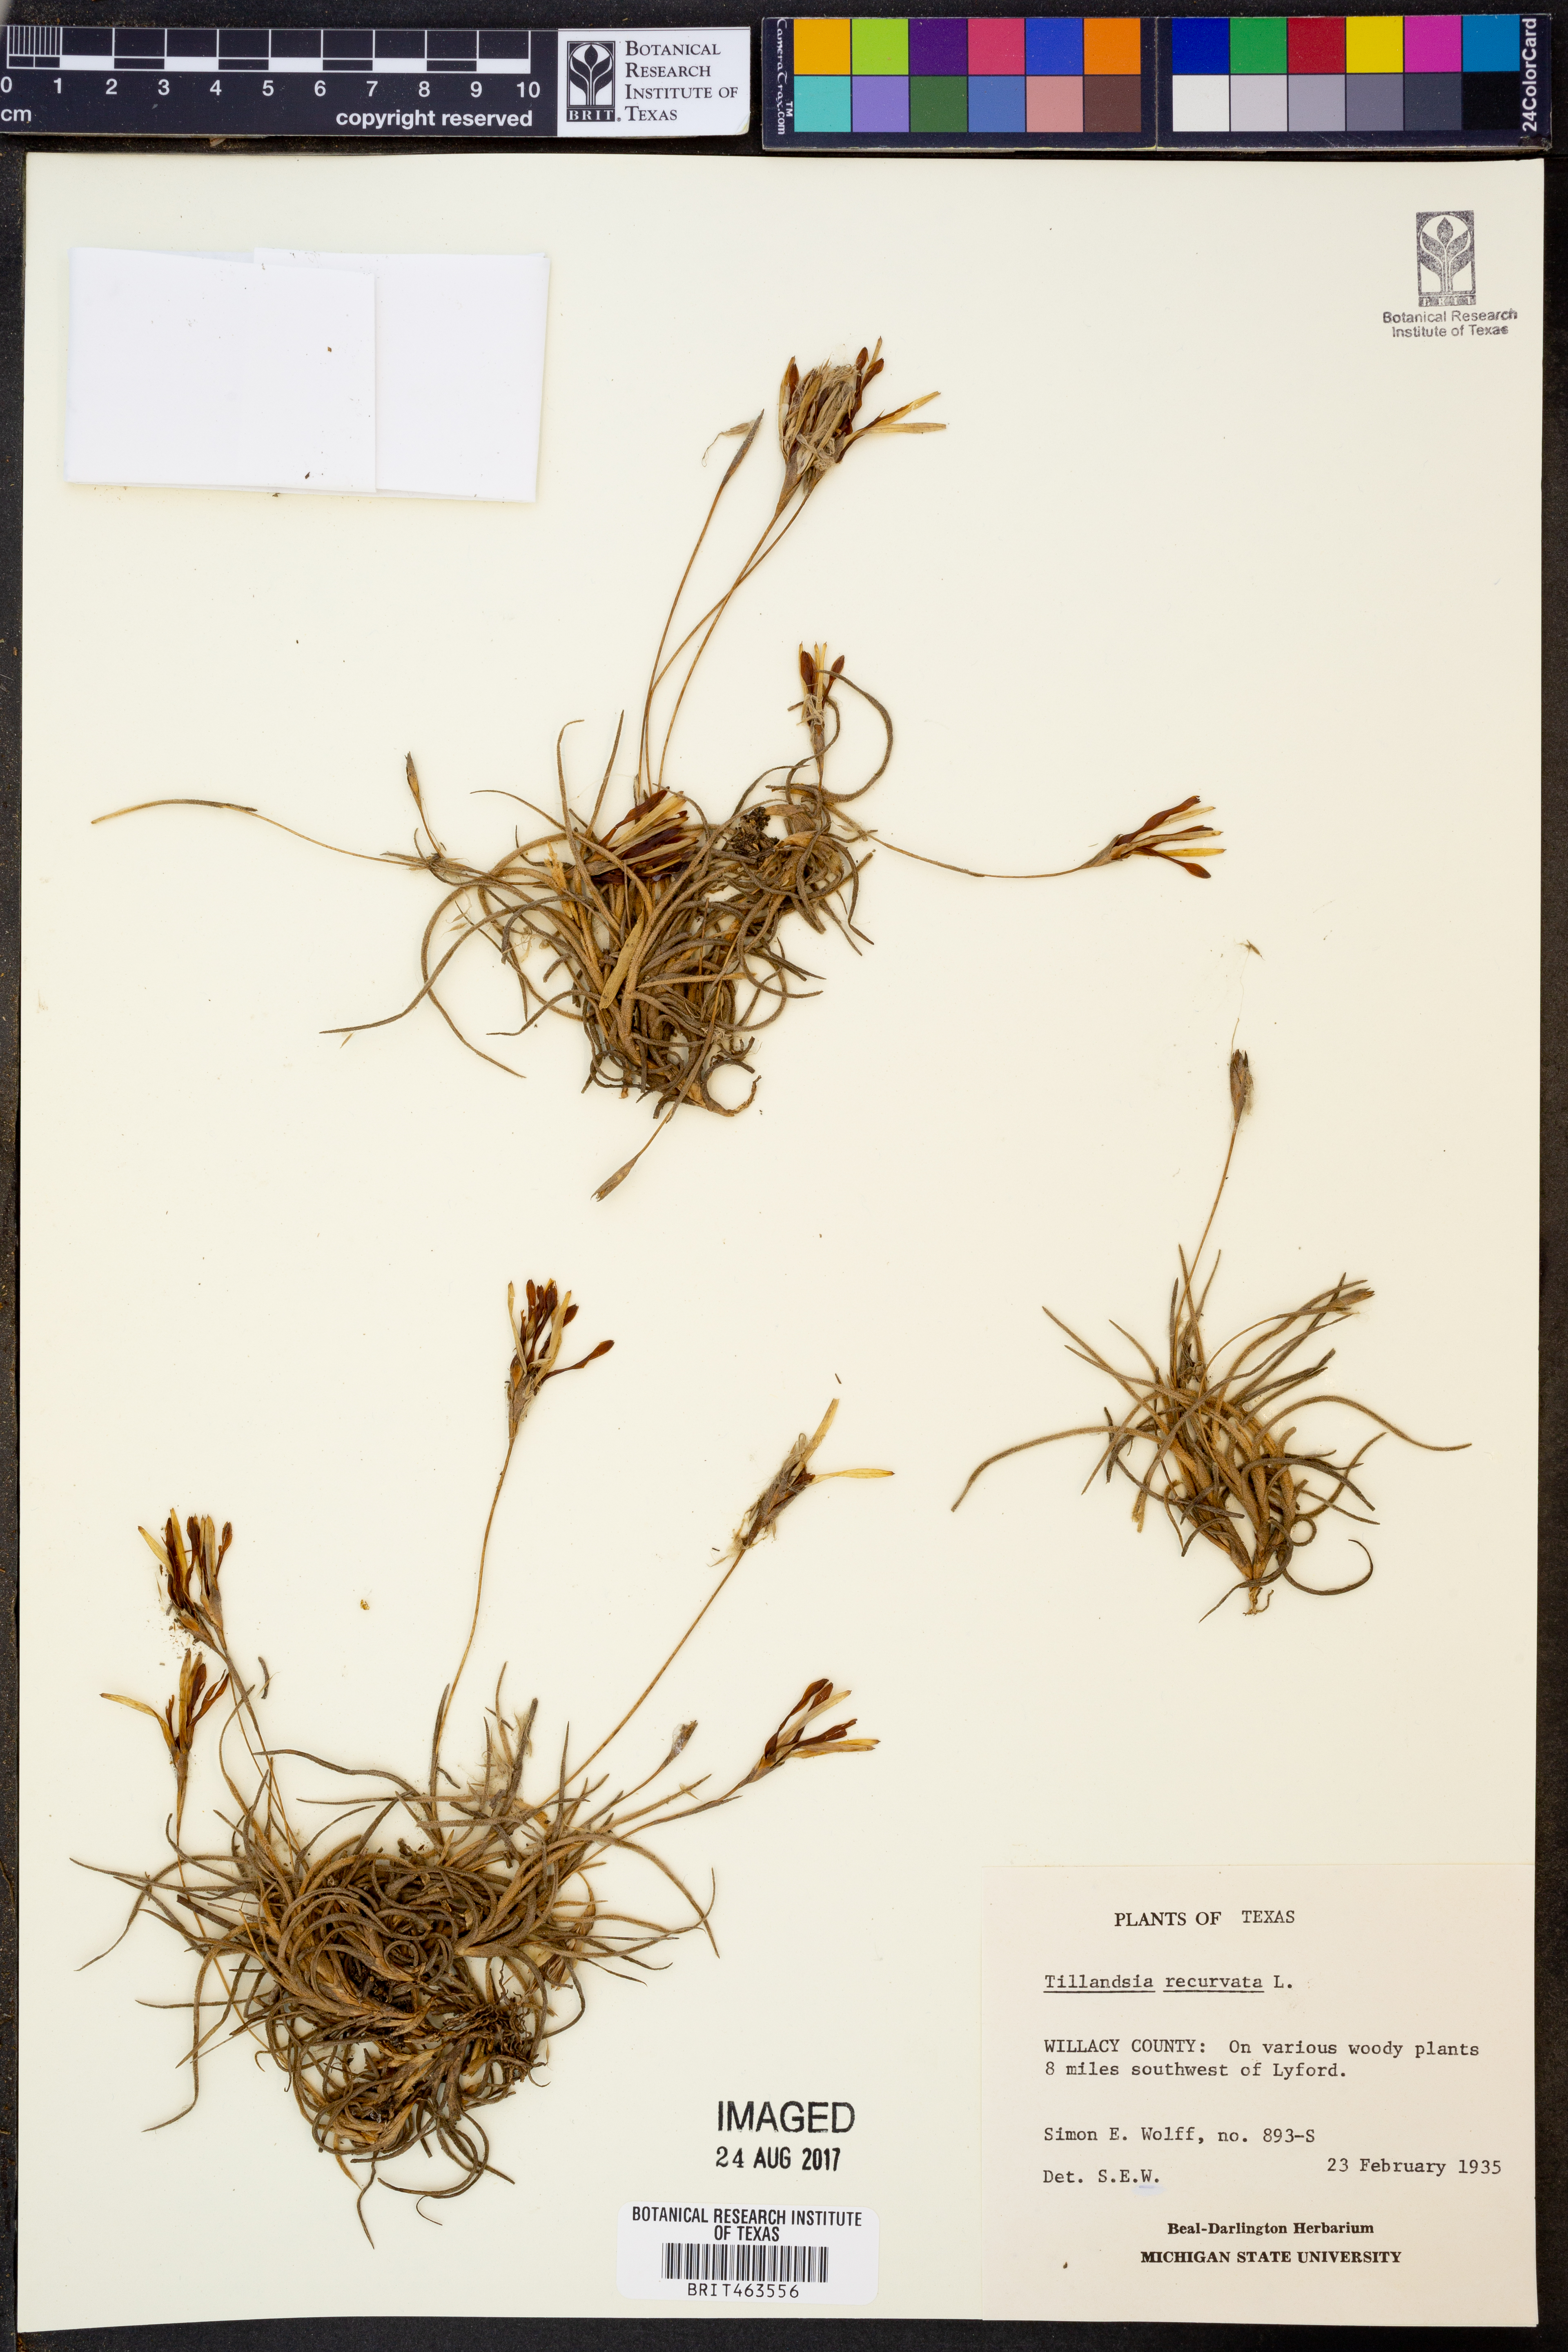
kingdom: Plantae
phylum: Tracheophyta
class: Liliopsida
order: Poales
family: Bromeliaceae
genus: Tillandsia
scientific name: Tillandsia recurvata
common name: Small ballmoss
